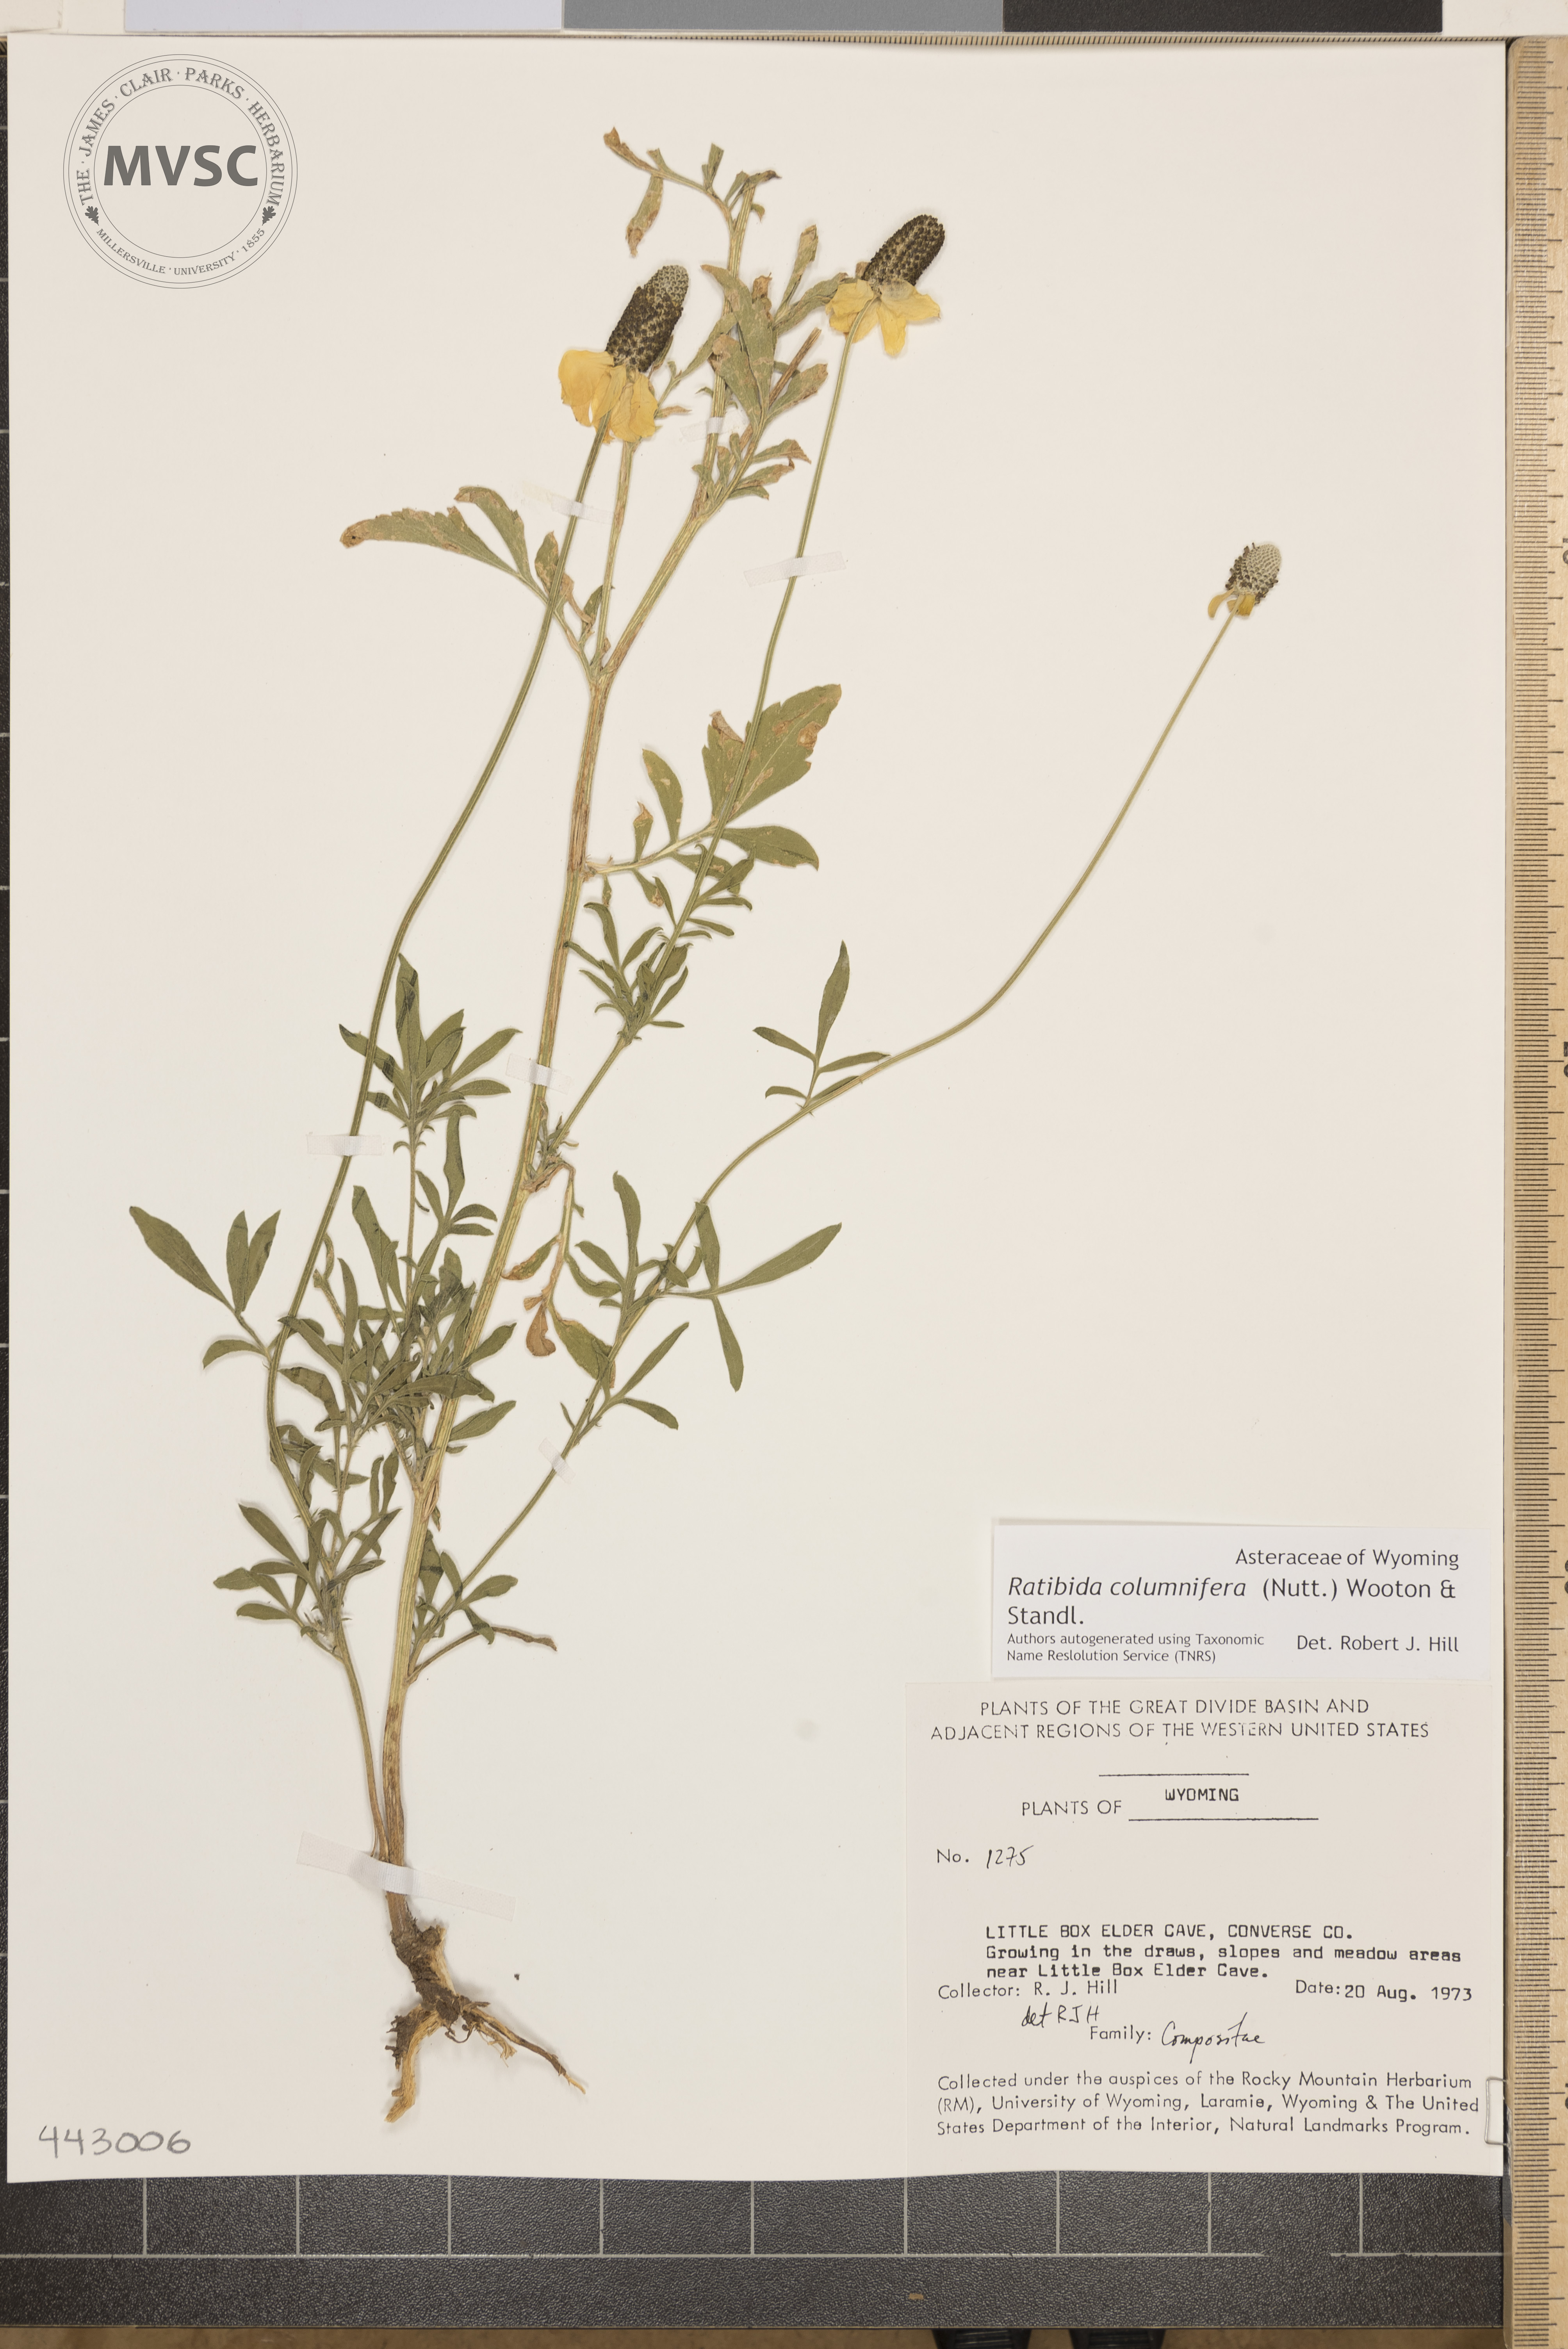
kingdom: Plantae
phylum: Tracheophyta
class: Magnoliopsida
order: Asterales
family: Asteraceae
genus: Ratibida
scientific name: Ratibida columnifera
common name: Prairie coneflower
